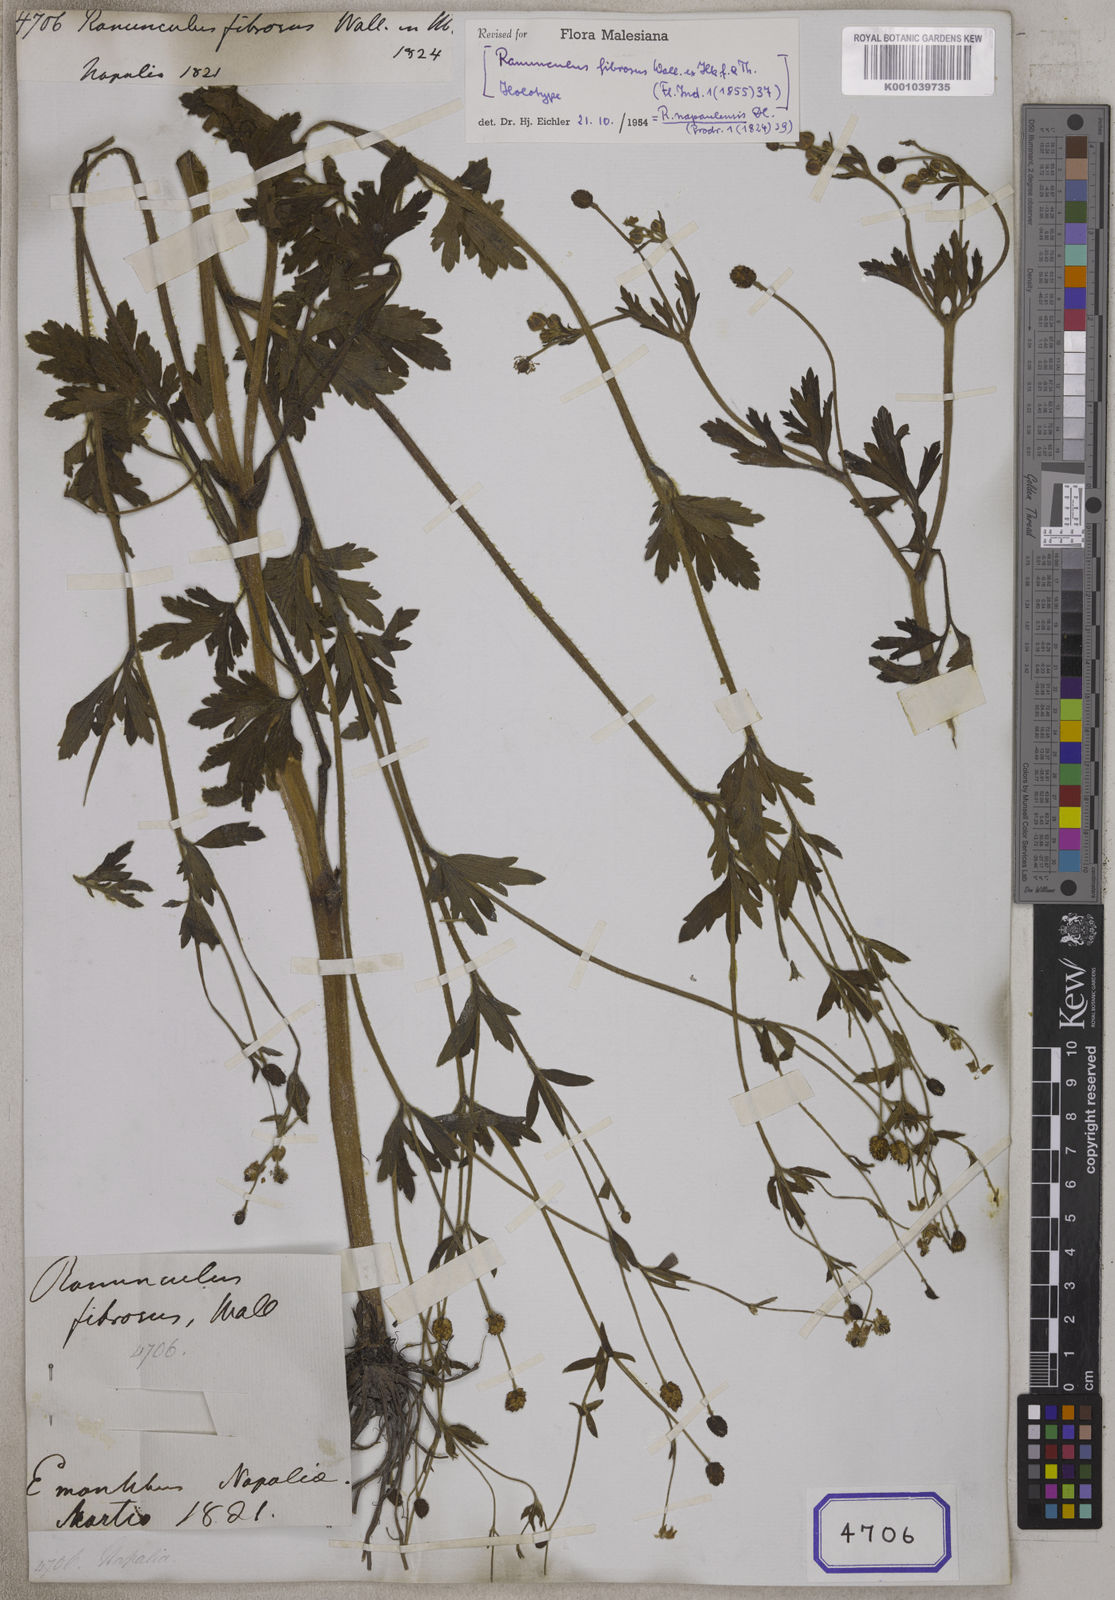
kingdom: Plantae
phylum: Tracheophyta
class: Magnoliopsida
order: Ranunculales
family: Ranunculaceae
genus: Ranunculus
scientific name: Ranunculus
